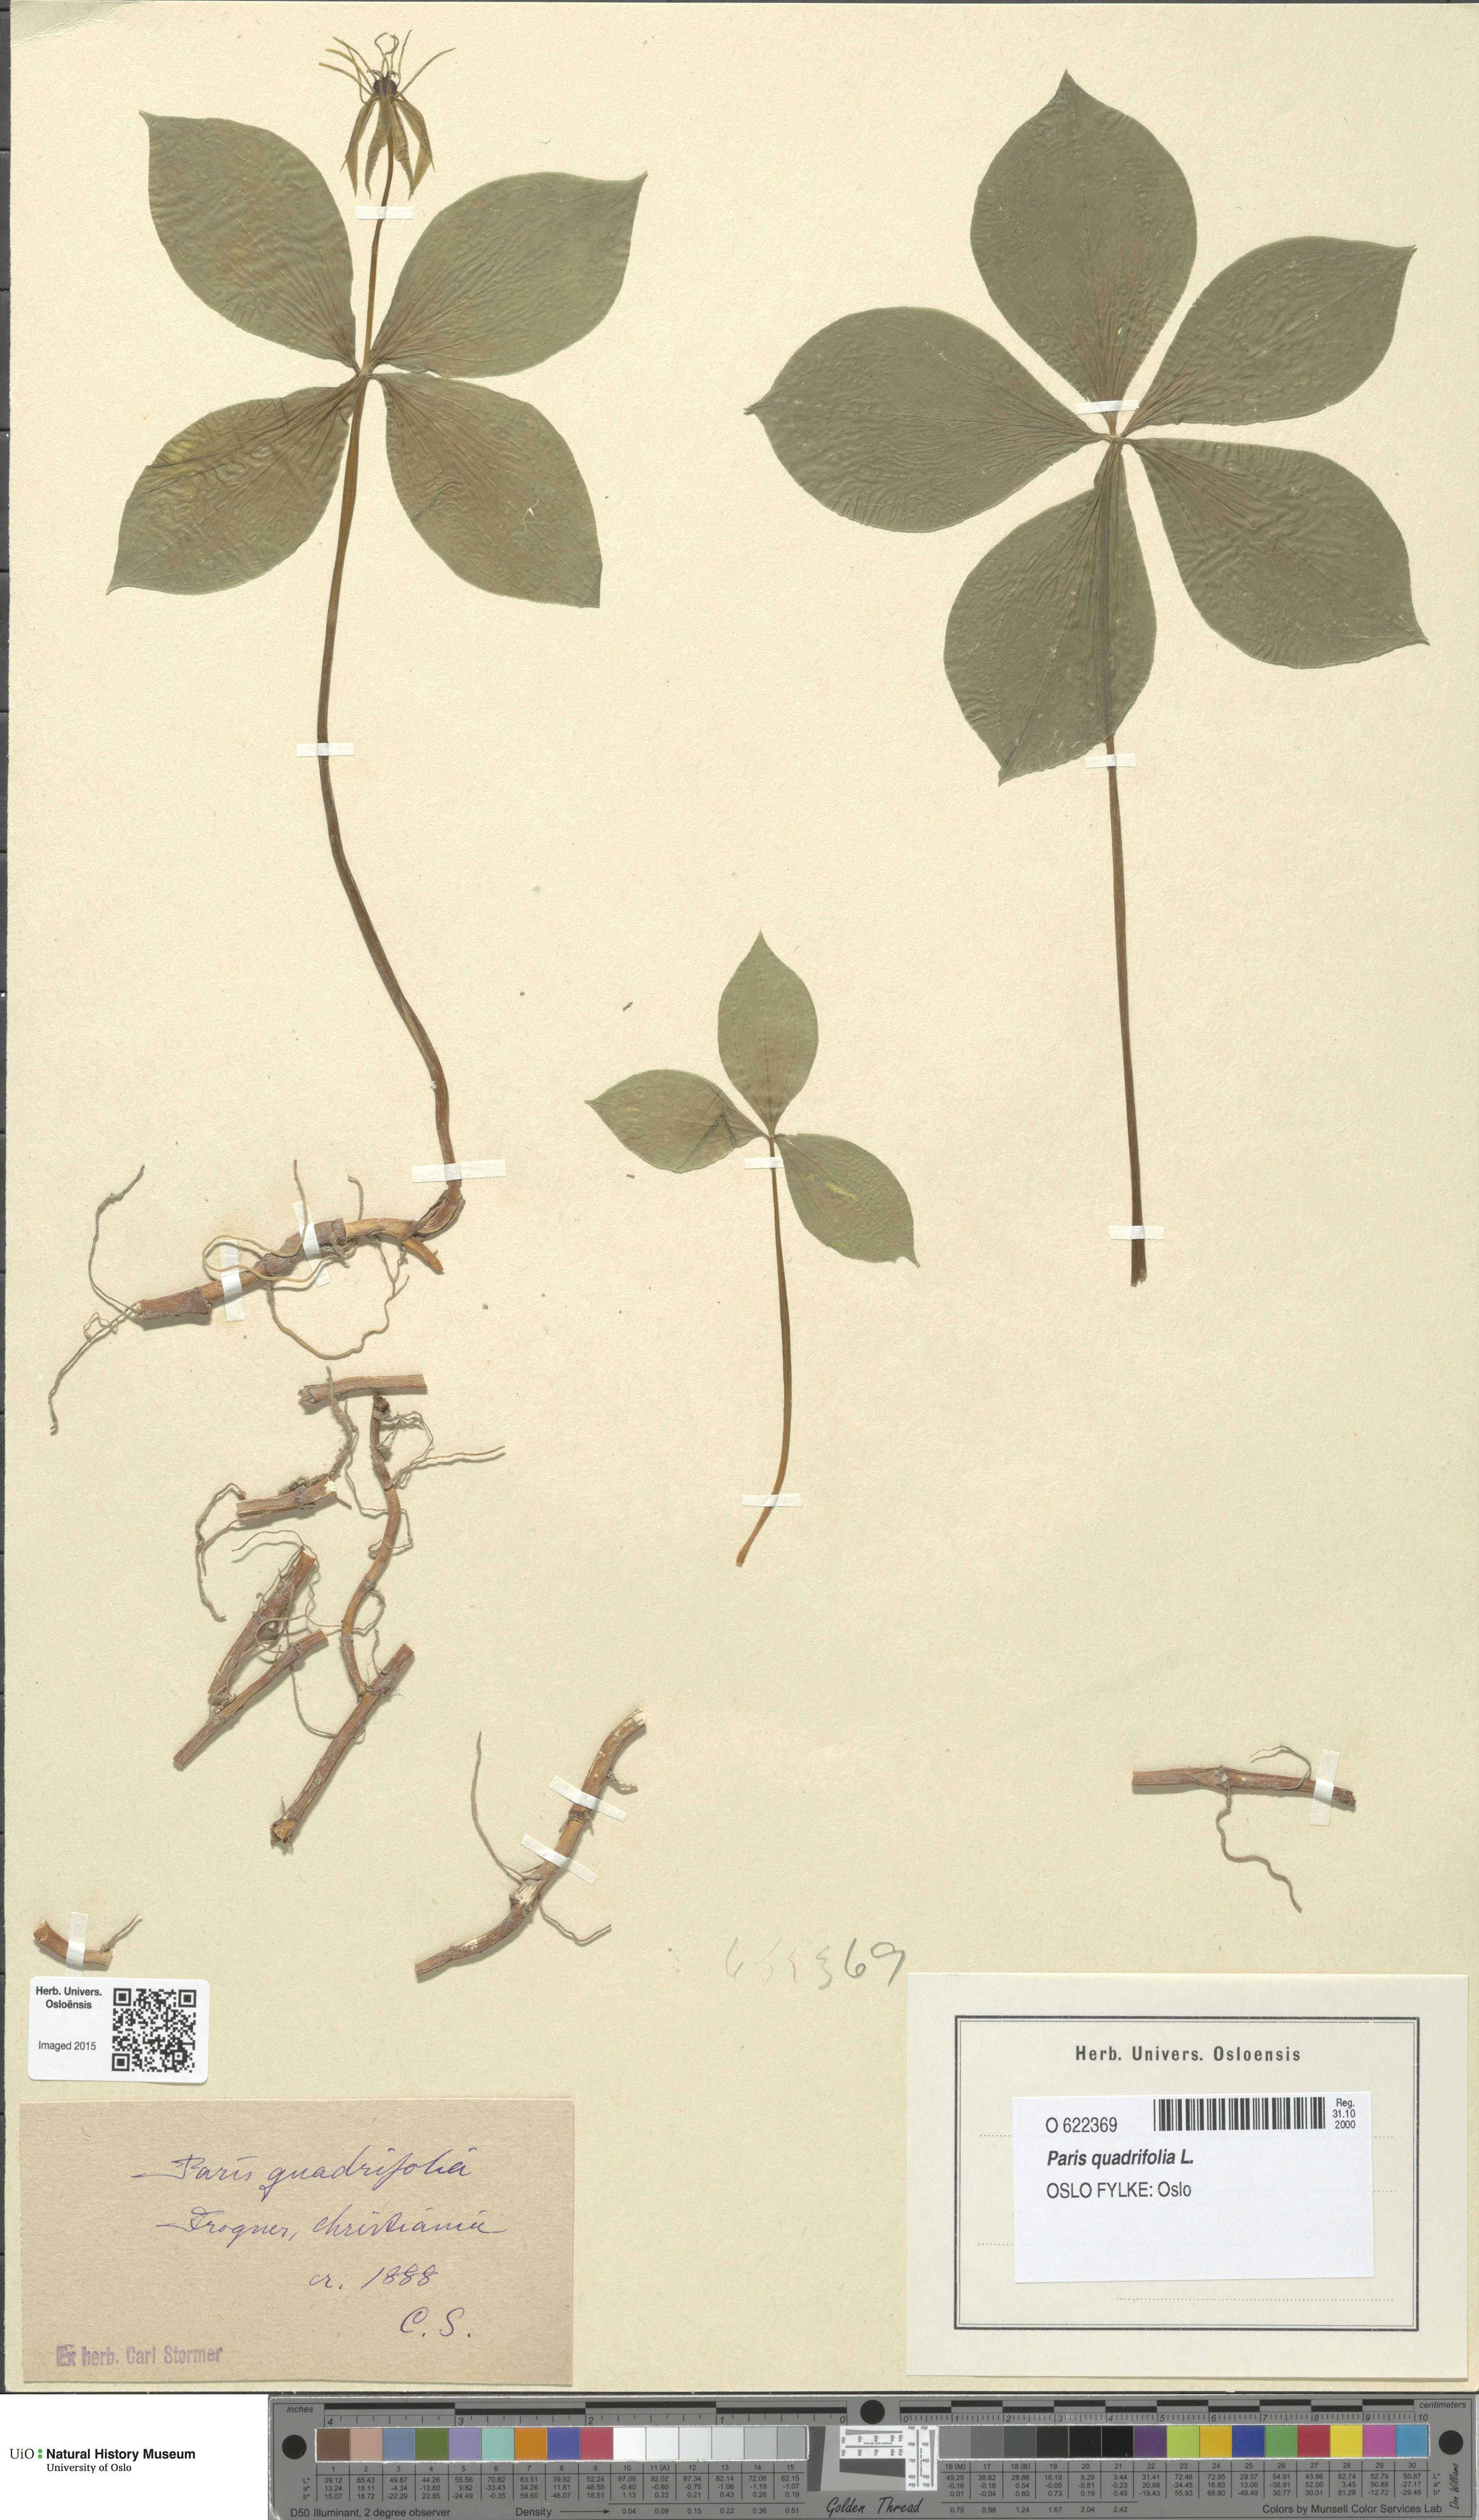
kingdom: Plantae
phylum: Tracheophyta
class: Liliopsida
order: Liliales
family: Melanthiaceae
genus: Paris
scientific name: Paris quadrifolia
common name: Herb-paris
